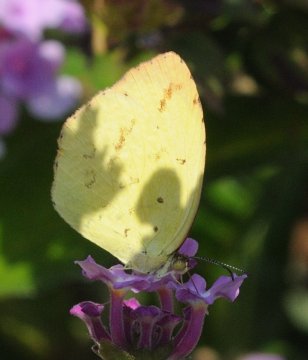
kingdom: Animalia
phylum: Arthropoda
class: Insecta
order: Lepidoptera
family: Pieridae
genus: Eurema
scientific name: Eurema desjardinsii
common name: Angled Grass Yellow
